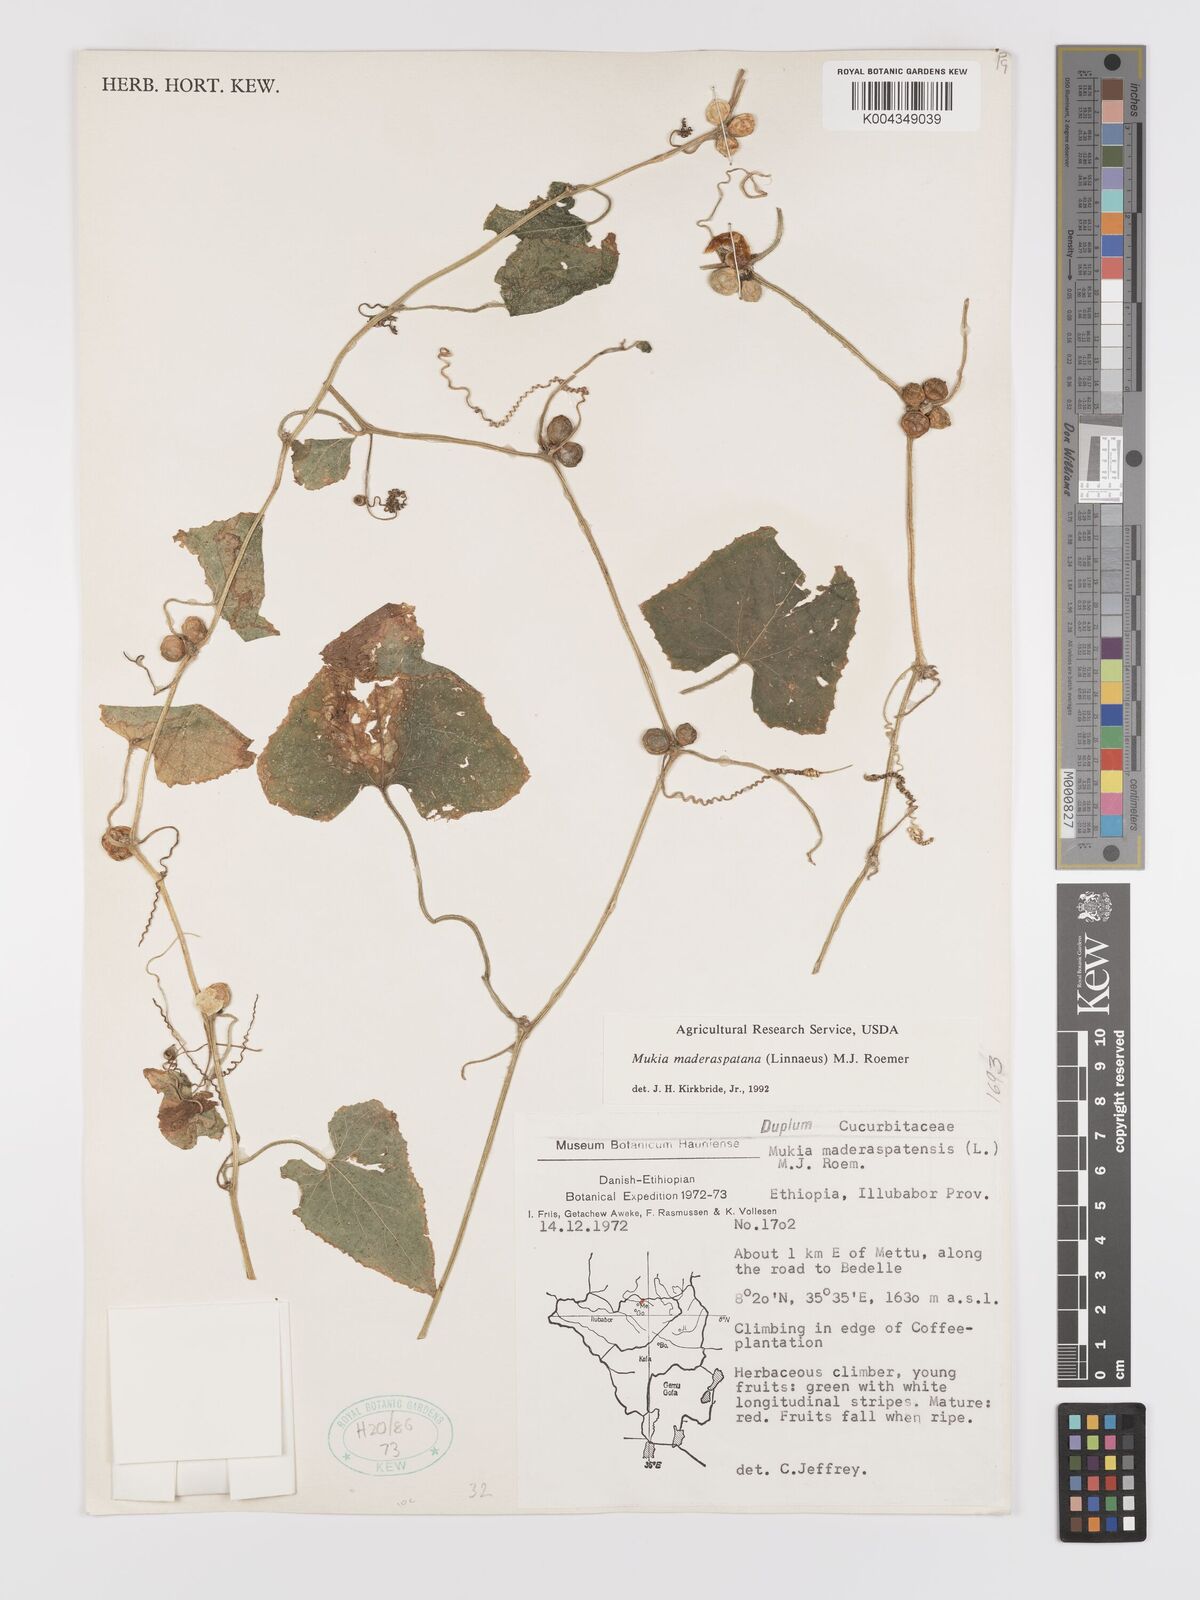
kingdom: Plantae
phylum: Tracheophyta
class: Magnoliopsida
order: Cucurbitales
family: Cucurbitaceae
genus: Cucumis
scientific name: Cucumis maderaspatanus
